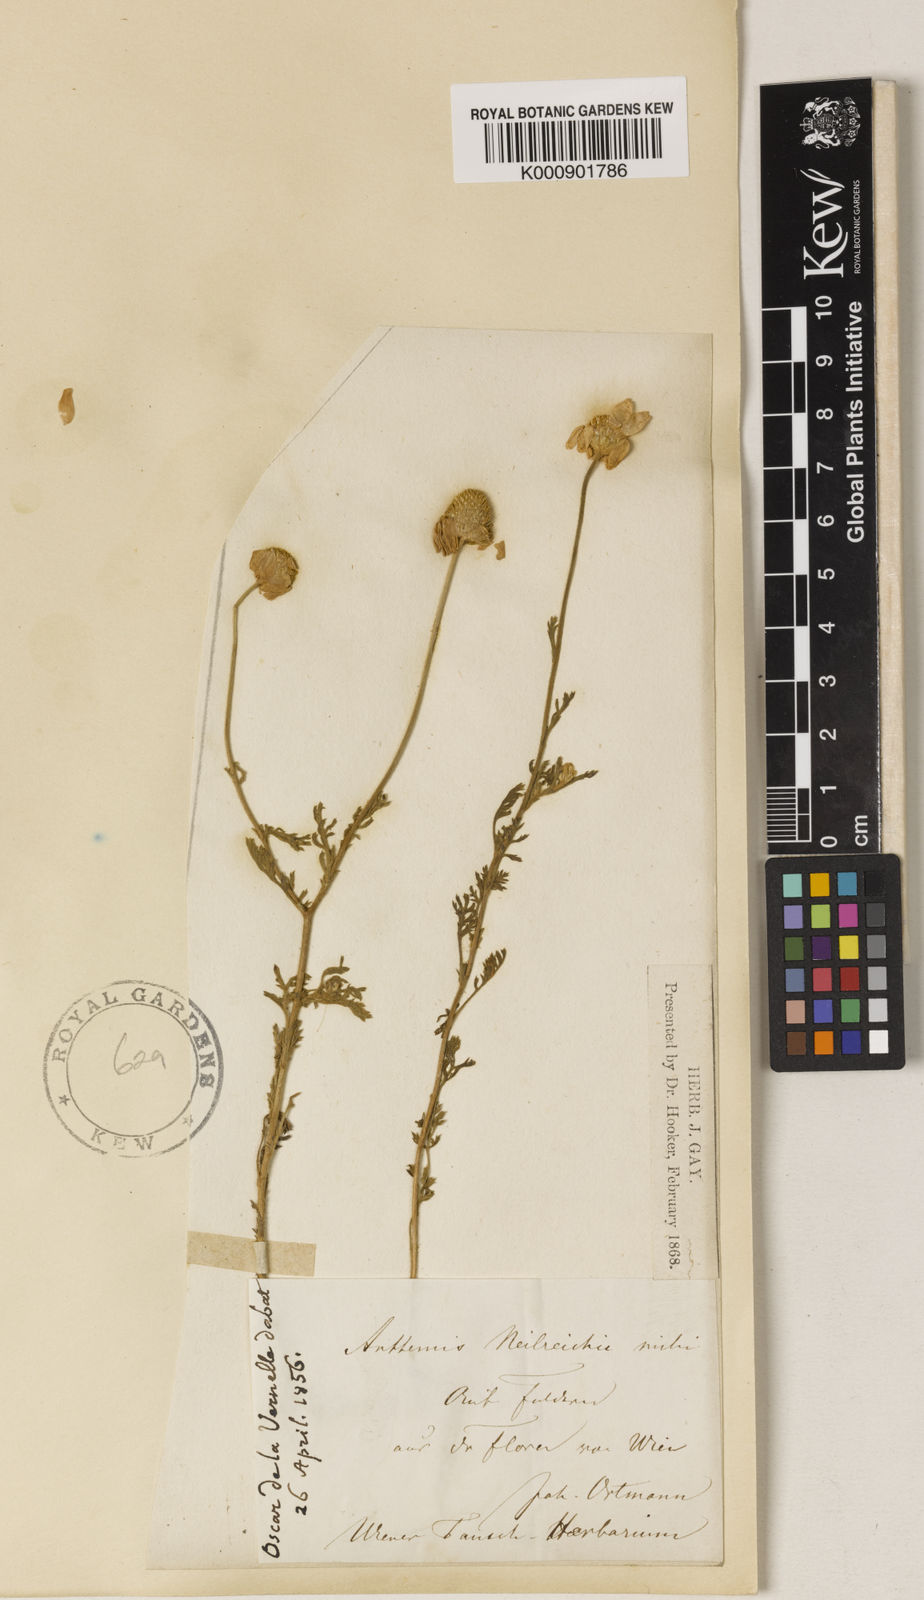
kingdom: Plantae
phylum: Tracheophyta
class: Magnoliopsida
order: Asterales
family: Asteraceae
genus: Anthemis
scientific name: Anthemis ruthenica
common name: Eastern chamomile
